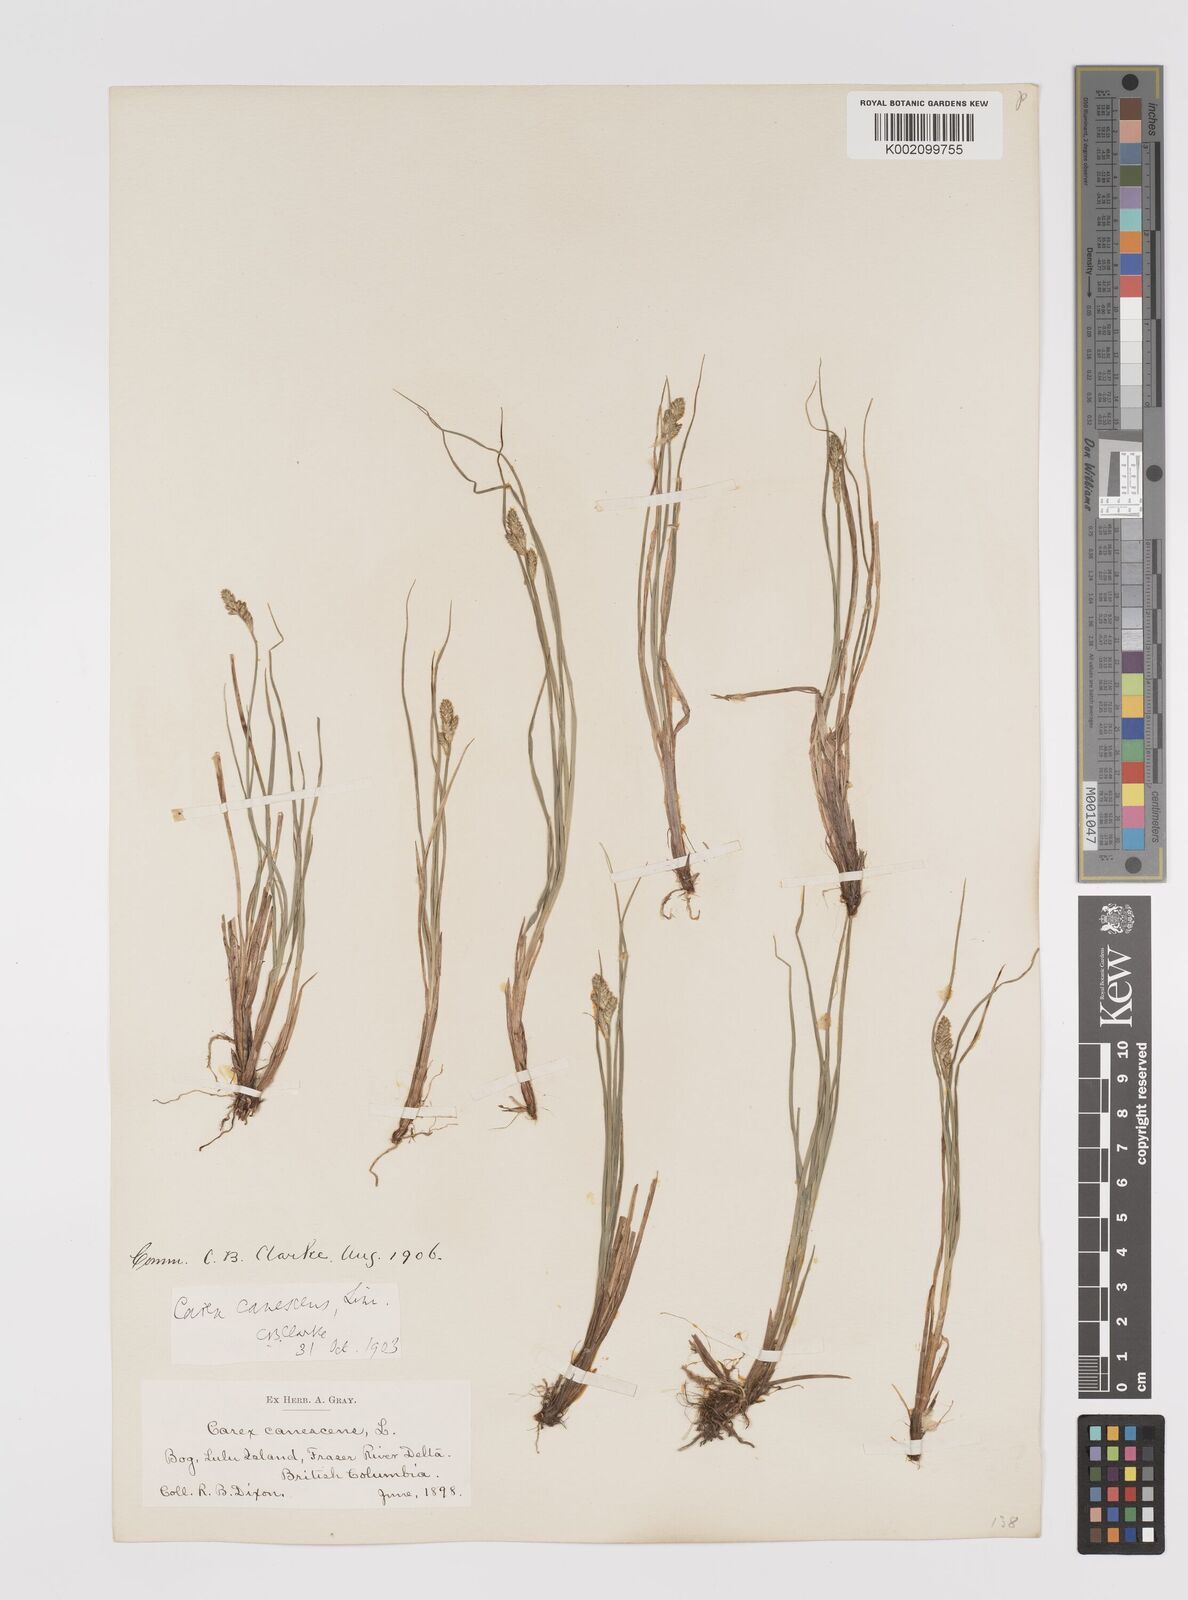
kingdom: Plantae
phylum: Tracheophyta
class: Liliopsida
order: Poales
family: Cyperaceae
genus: Carex
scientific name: Carex curta
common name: White sedge
